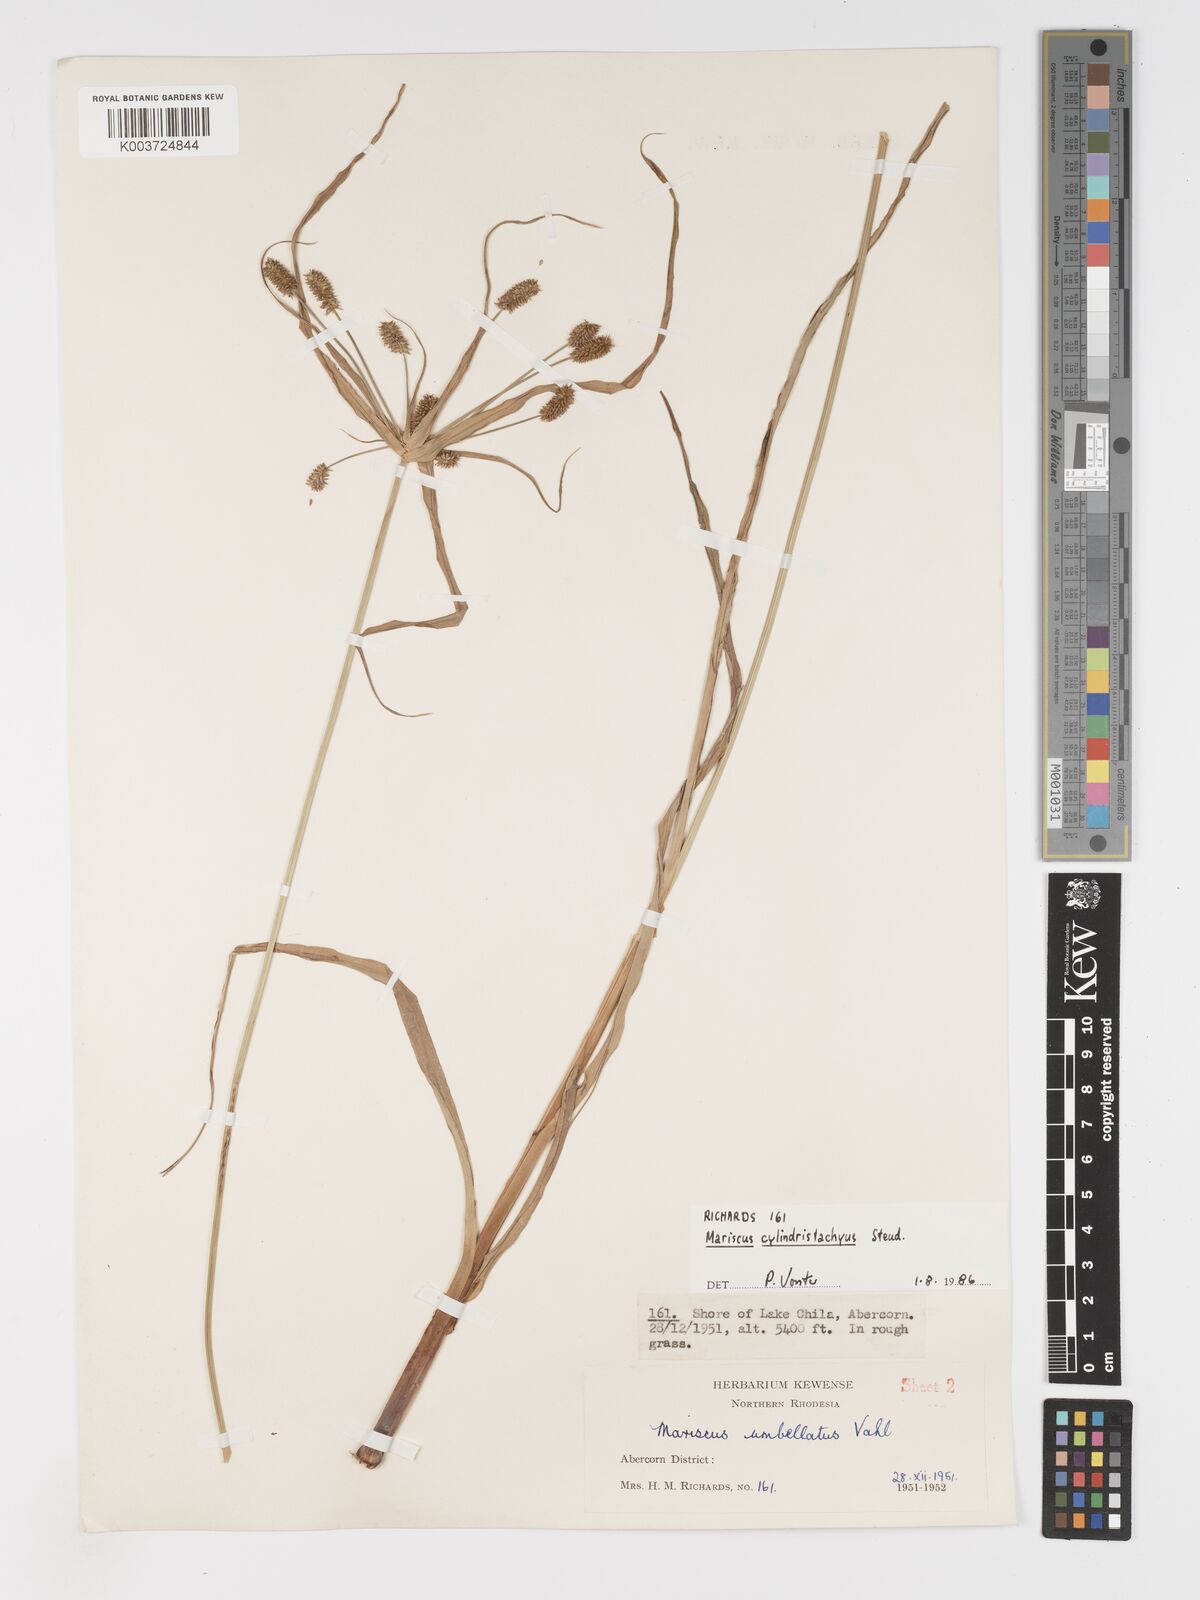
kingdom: Plantae
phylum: Tracheophyta
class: Liliopsida
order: Poales
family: Cyperaceae
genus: Cyperus
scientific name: Cyperus cyperoides
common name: Pacific island flat sedge
